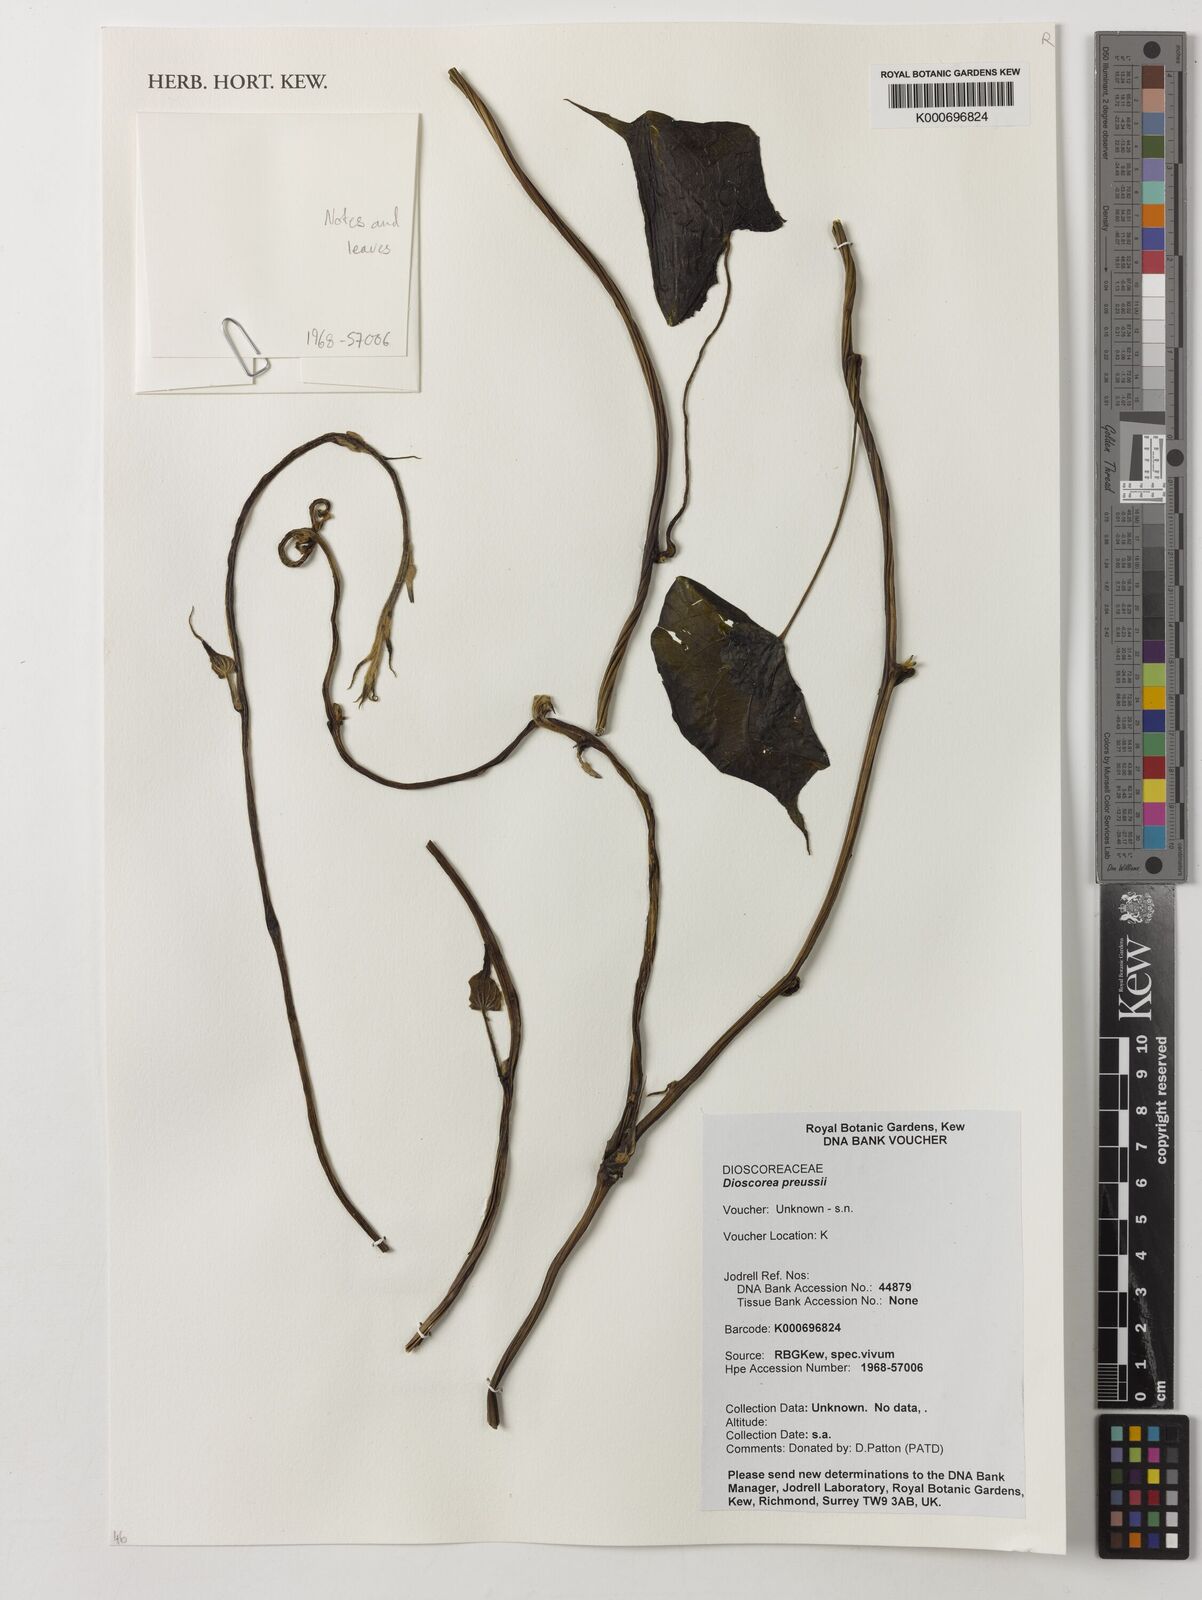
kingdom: Plantae
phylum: Tracheophyta
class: Liliopsida
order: Dioscoreales
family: Dioscoreaceae
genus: Dioscorea
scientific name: Dioscorea preussii
